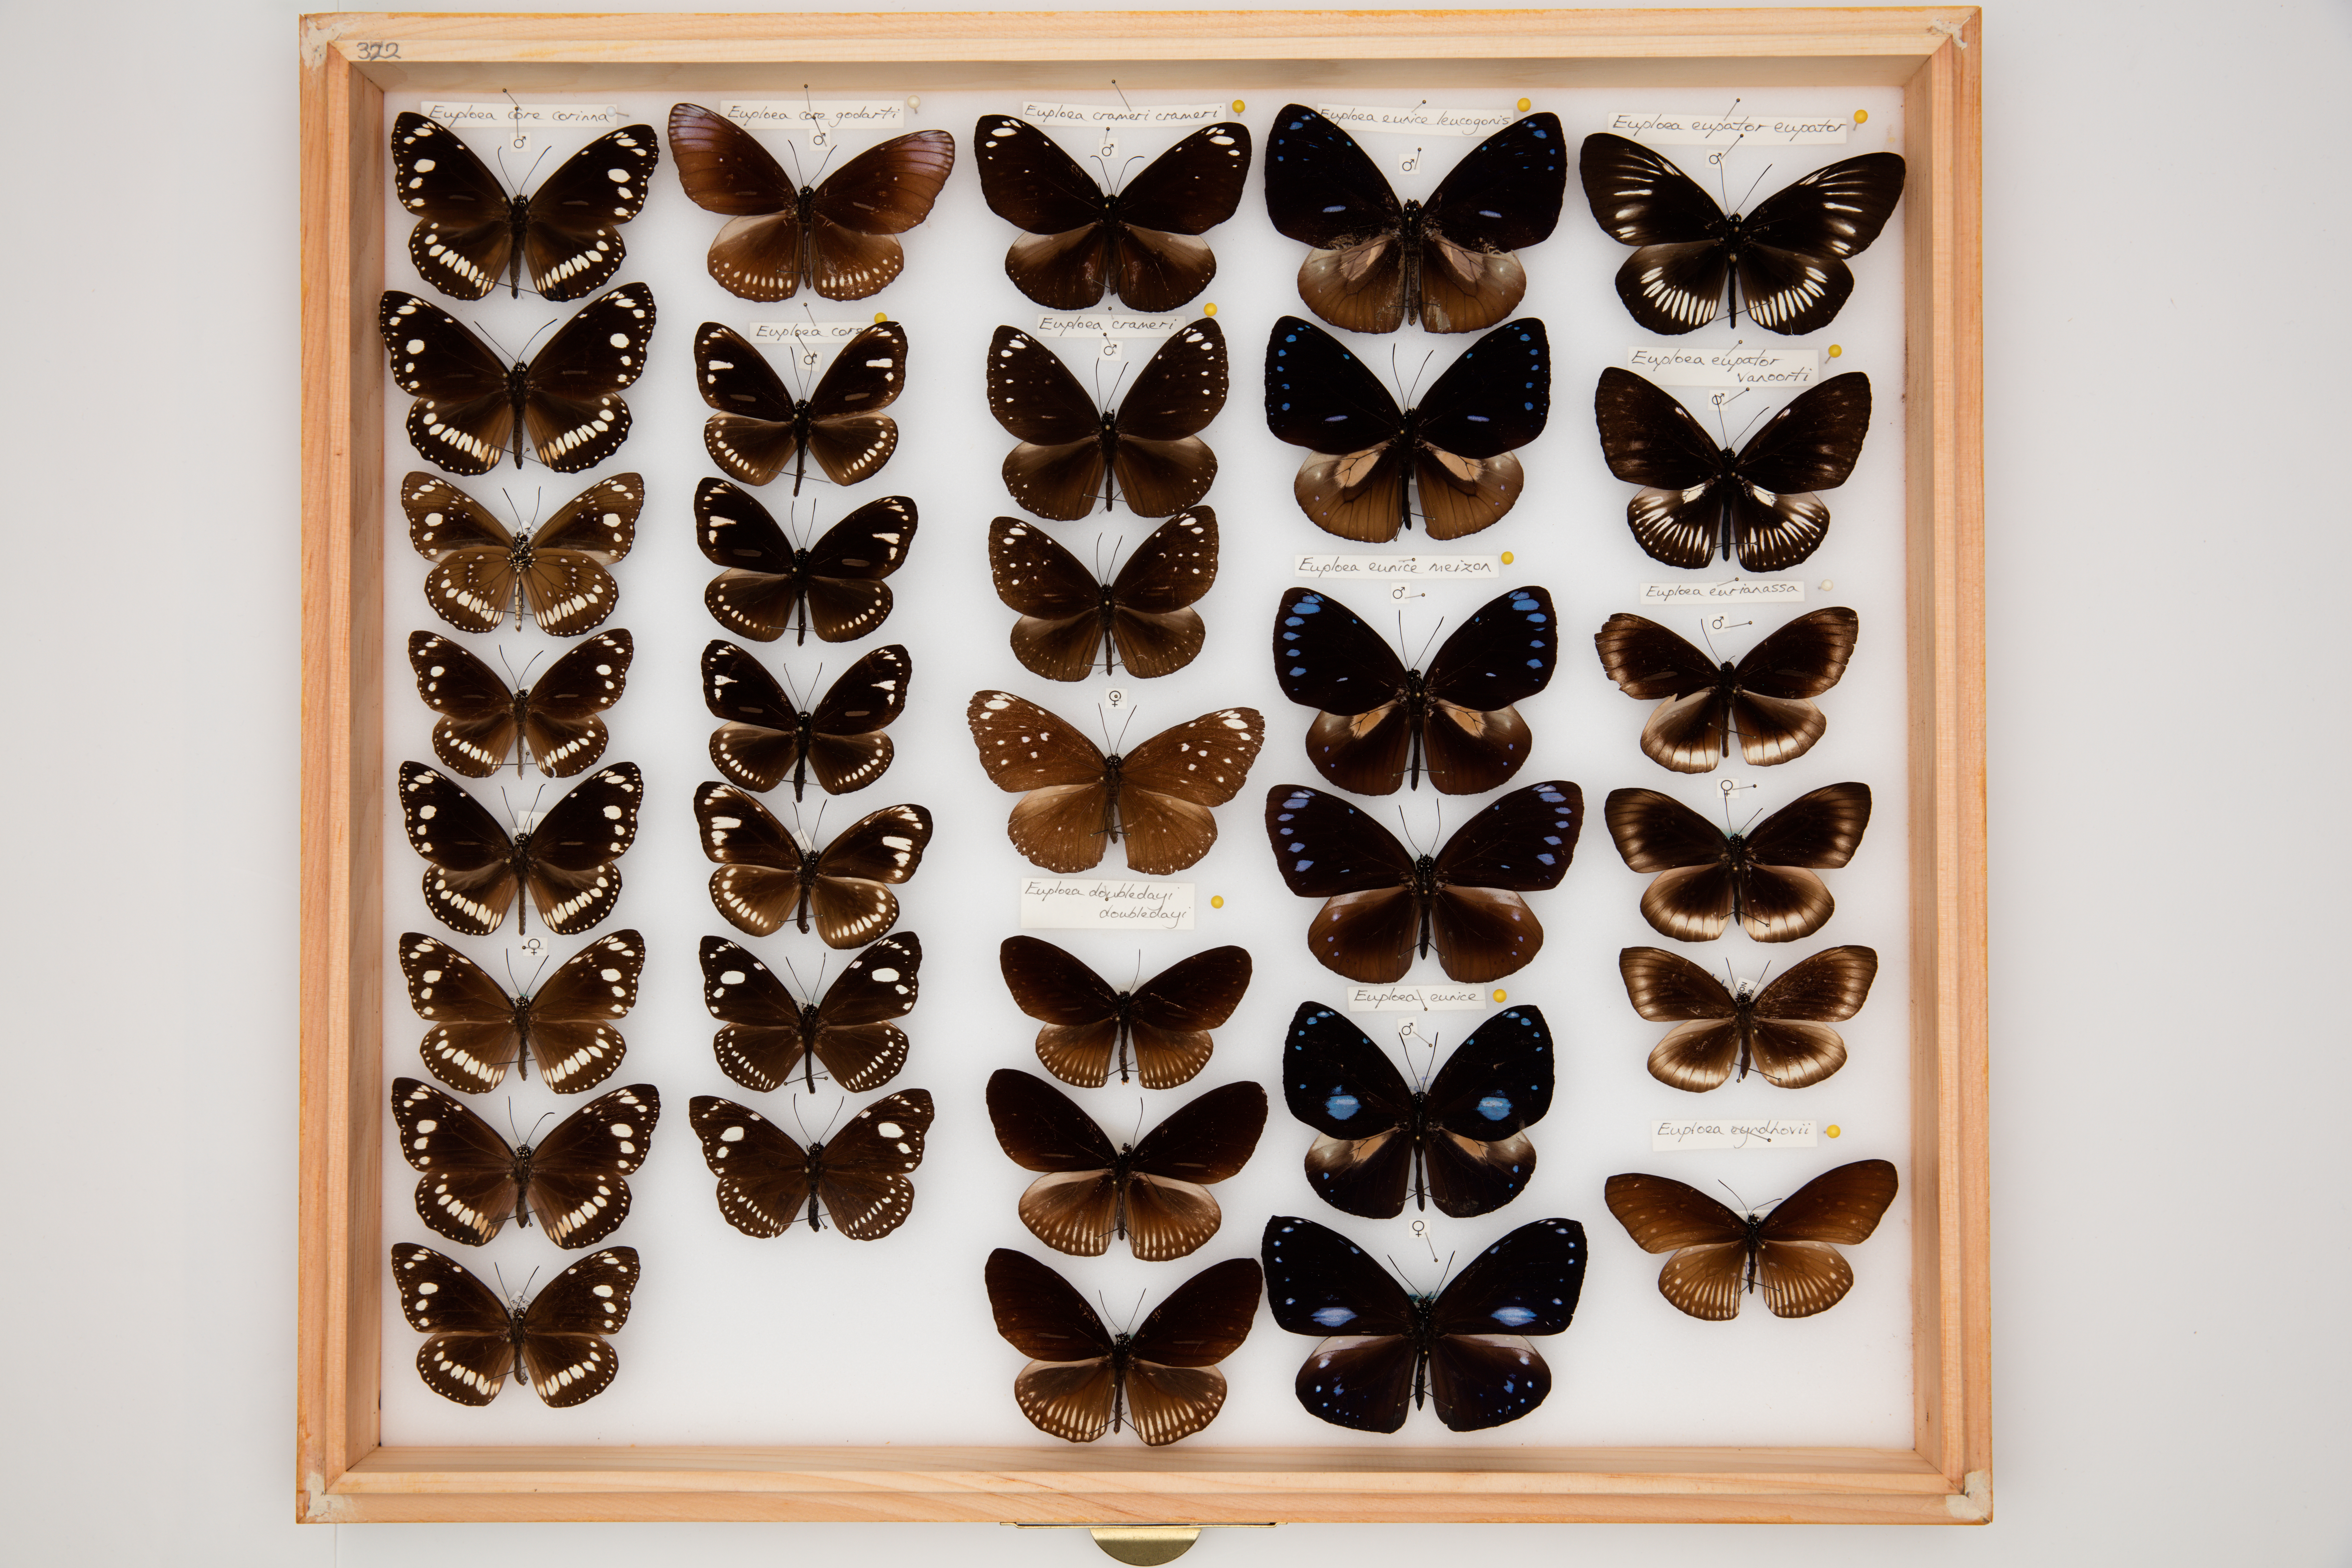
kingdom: Animalia
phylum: Arthropoda
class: Insecta
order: Lepidoptera
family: Nymphalidae
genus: Euploea
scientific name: Euploea eupator
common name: Sulawesi pied crow
